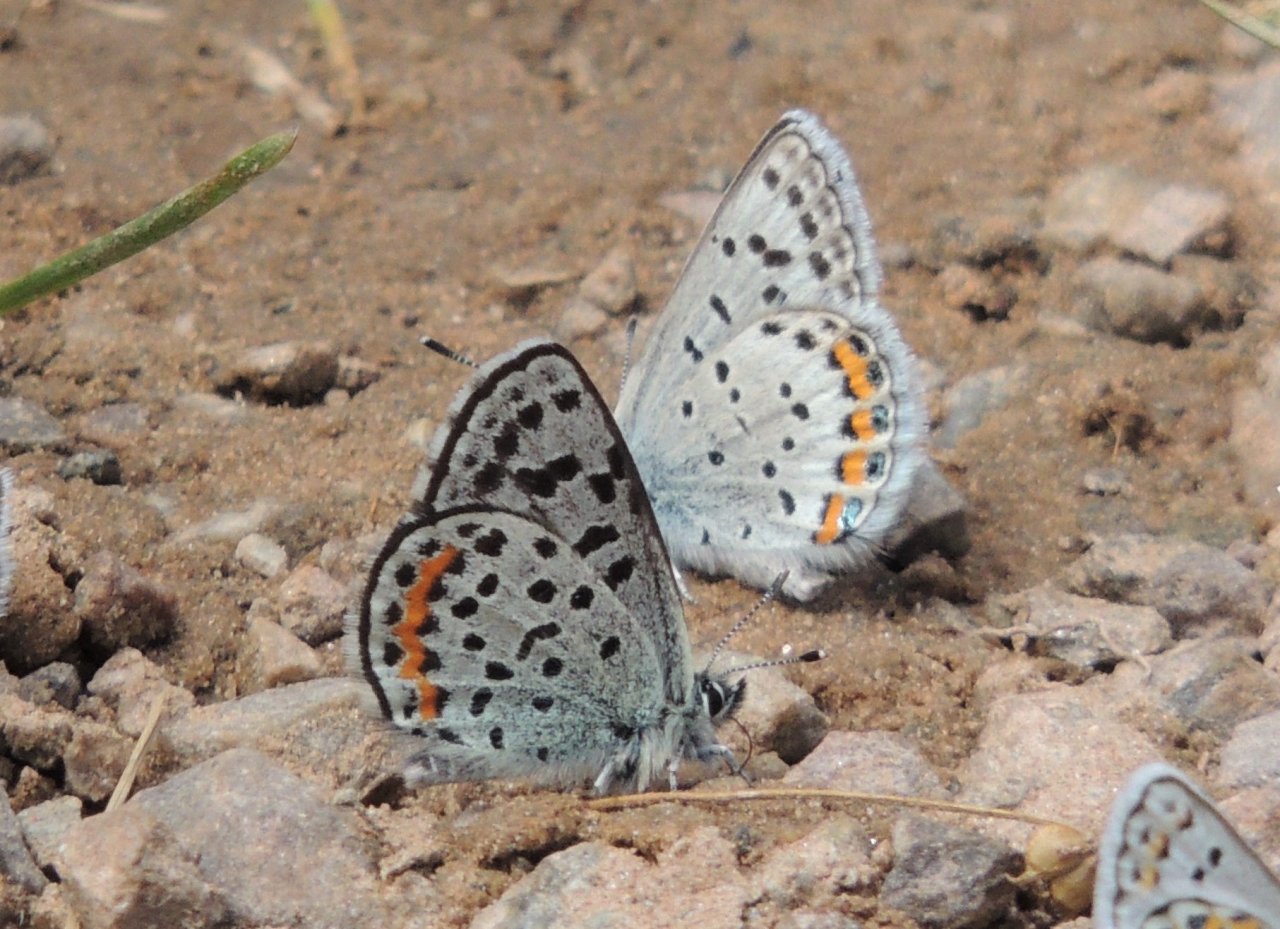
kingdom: Animalia
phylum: Arthropoda
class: Insecta
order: Lepidoptera
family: Lycaenidae
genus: Euphilotes
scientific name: Euphilotes battoides
